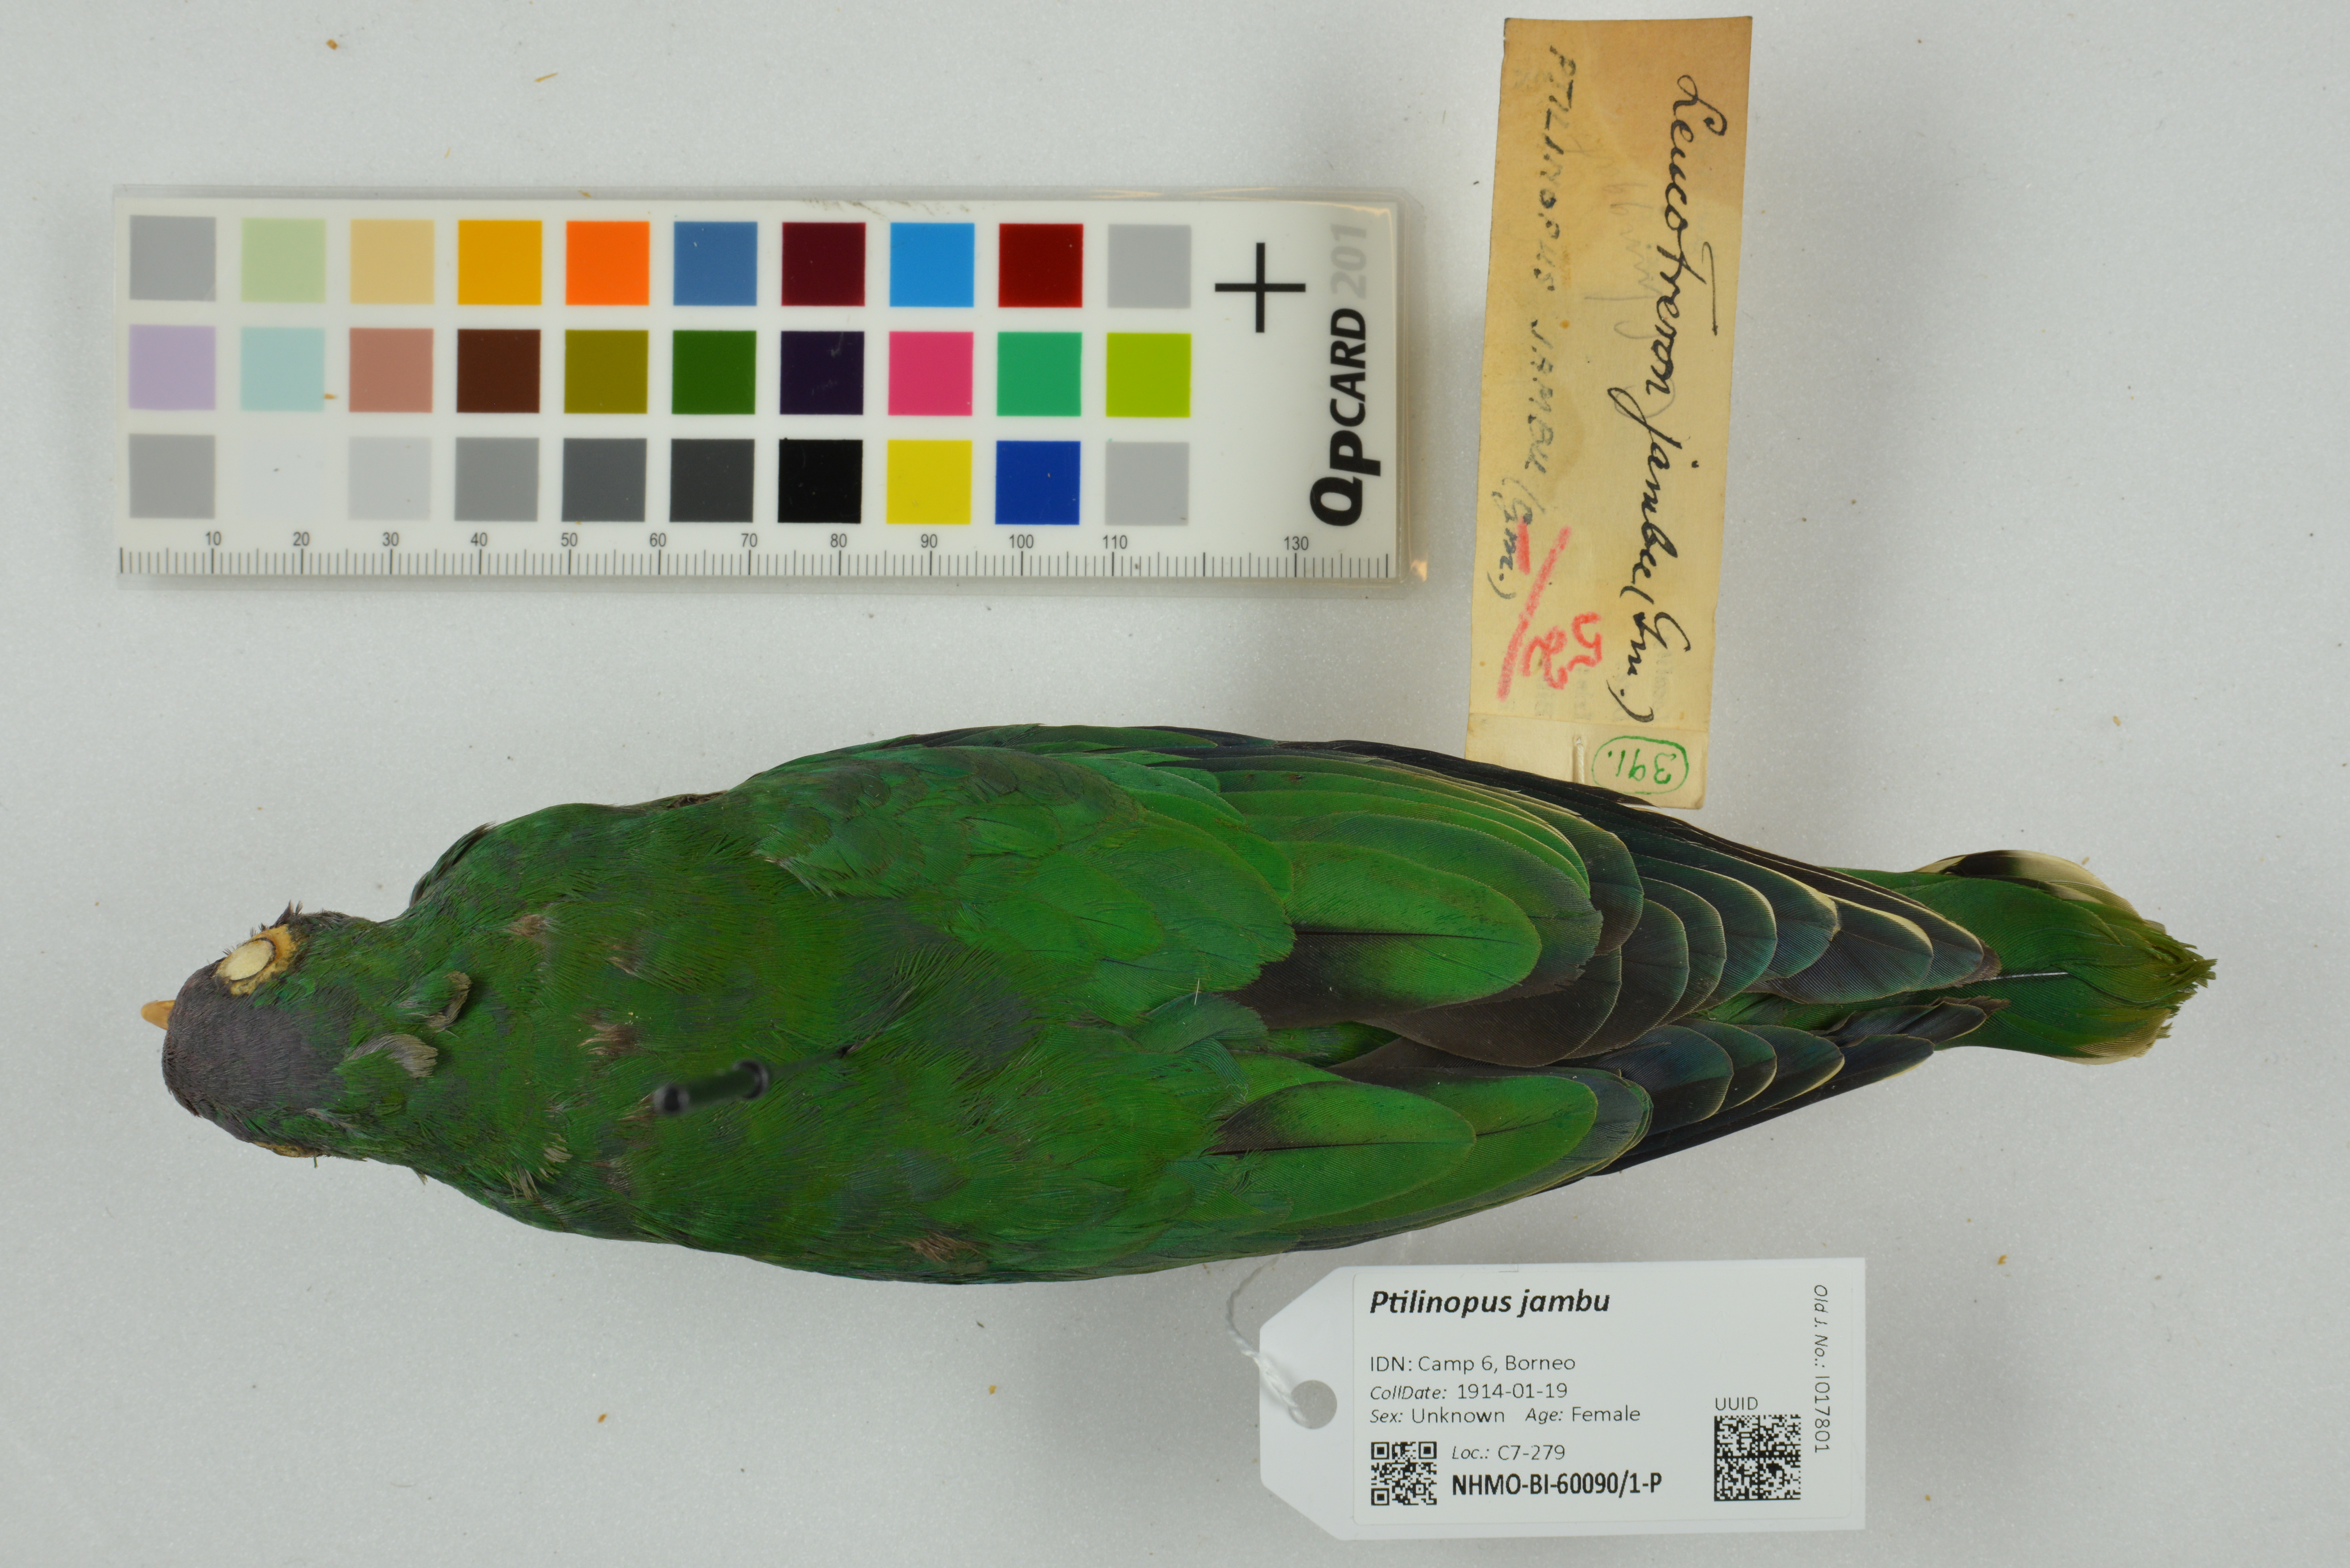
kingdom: Animalia
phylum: Chordata
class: Aves
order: Columbiformes
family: Columbidae
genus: Ptilinopus
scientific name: Ptilinopus jambu
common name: Jambu fruit dove
